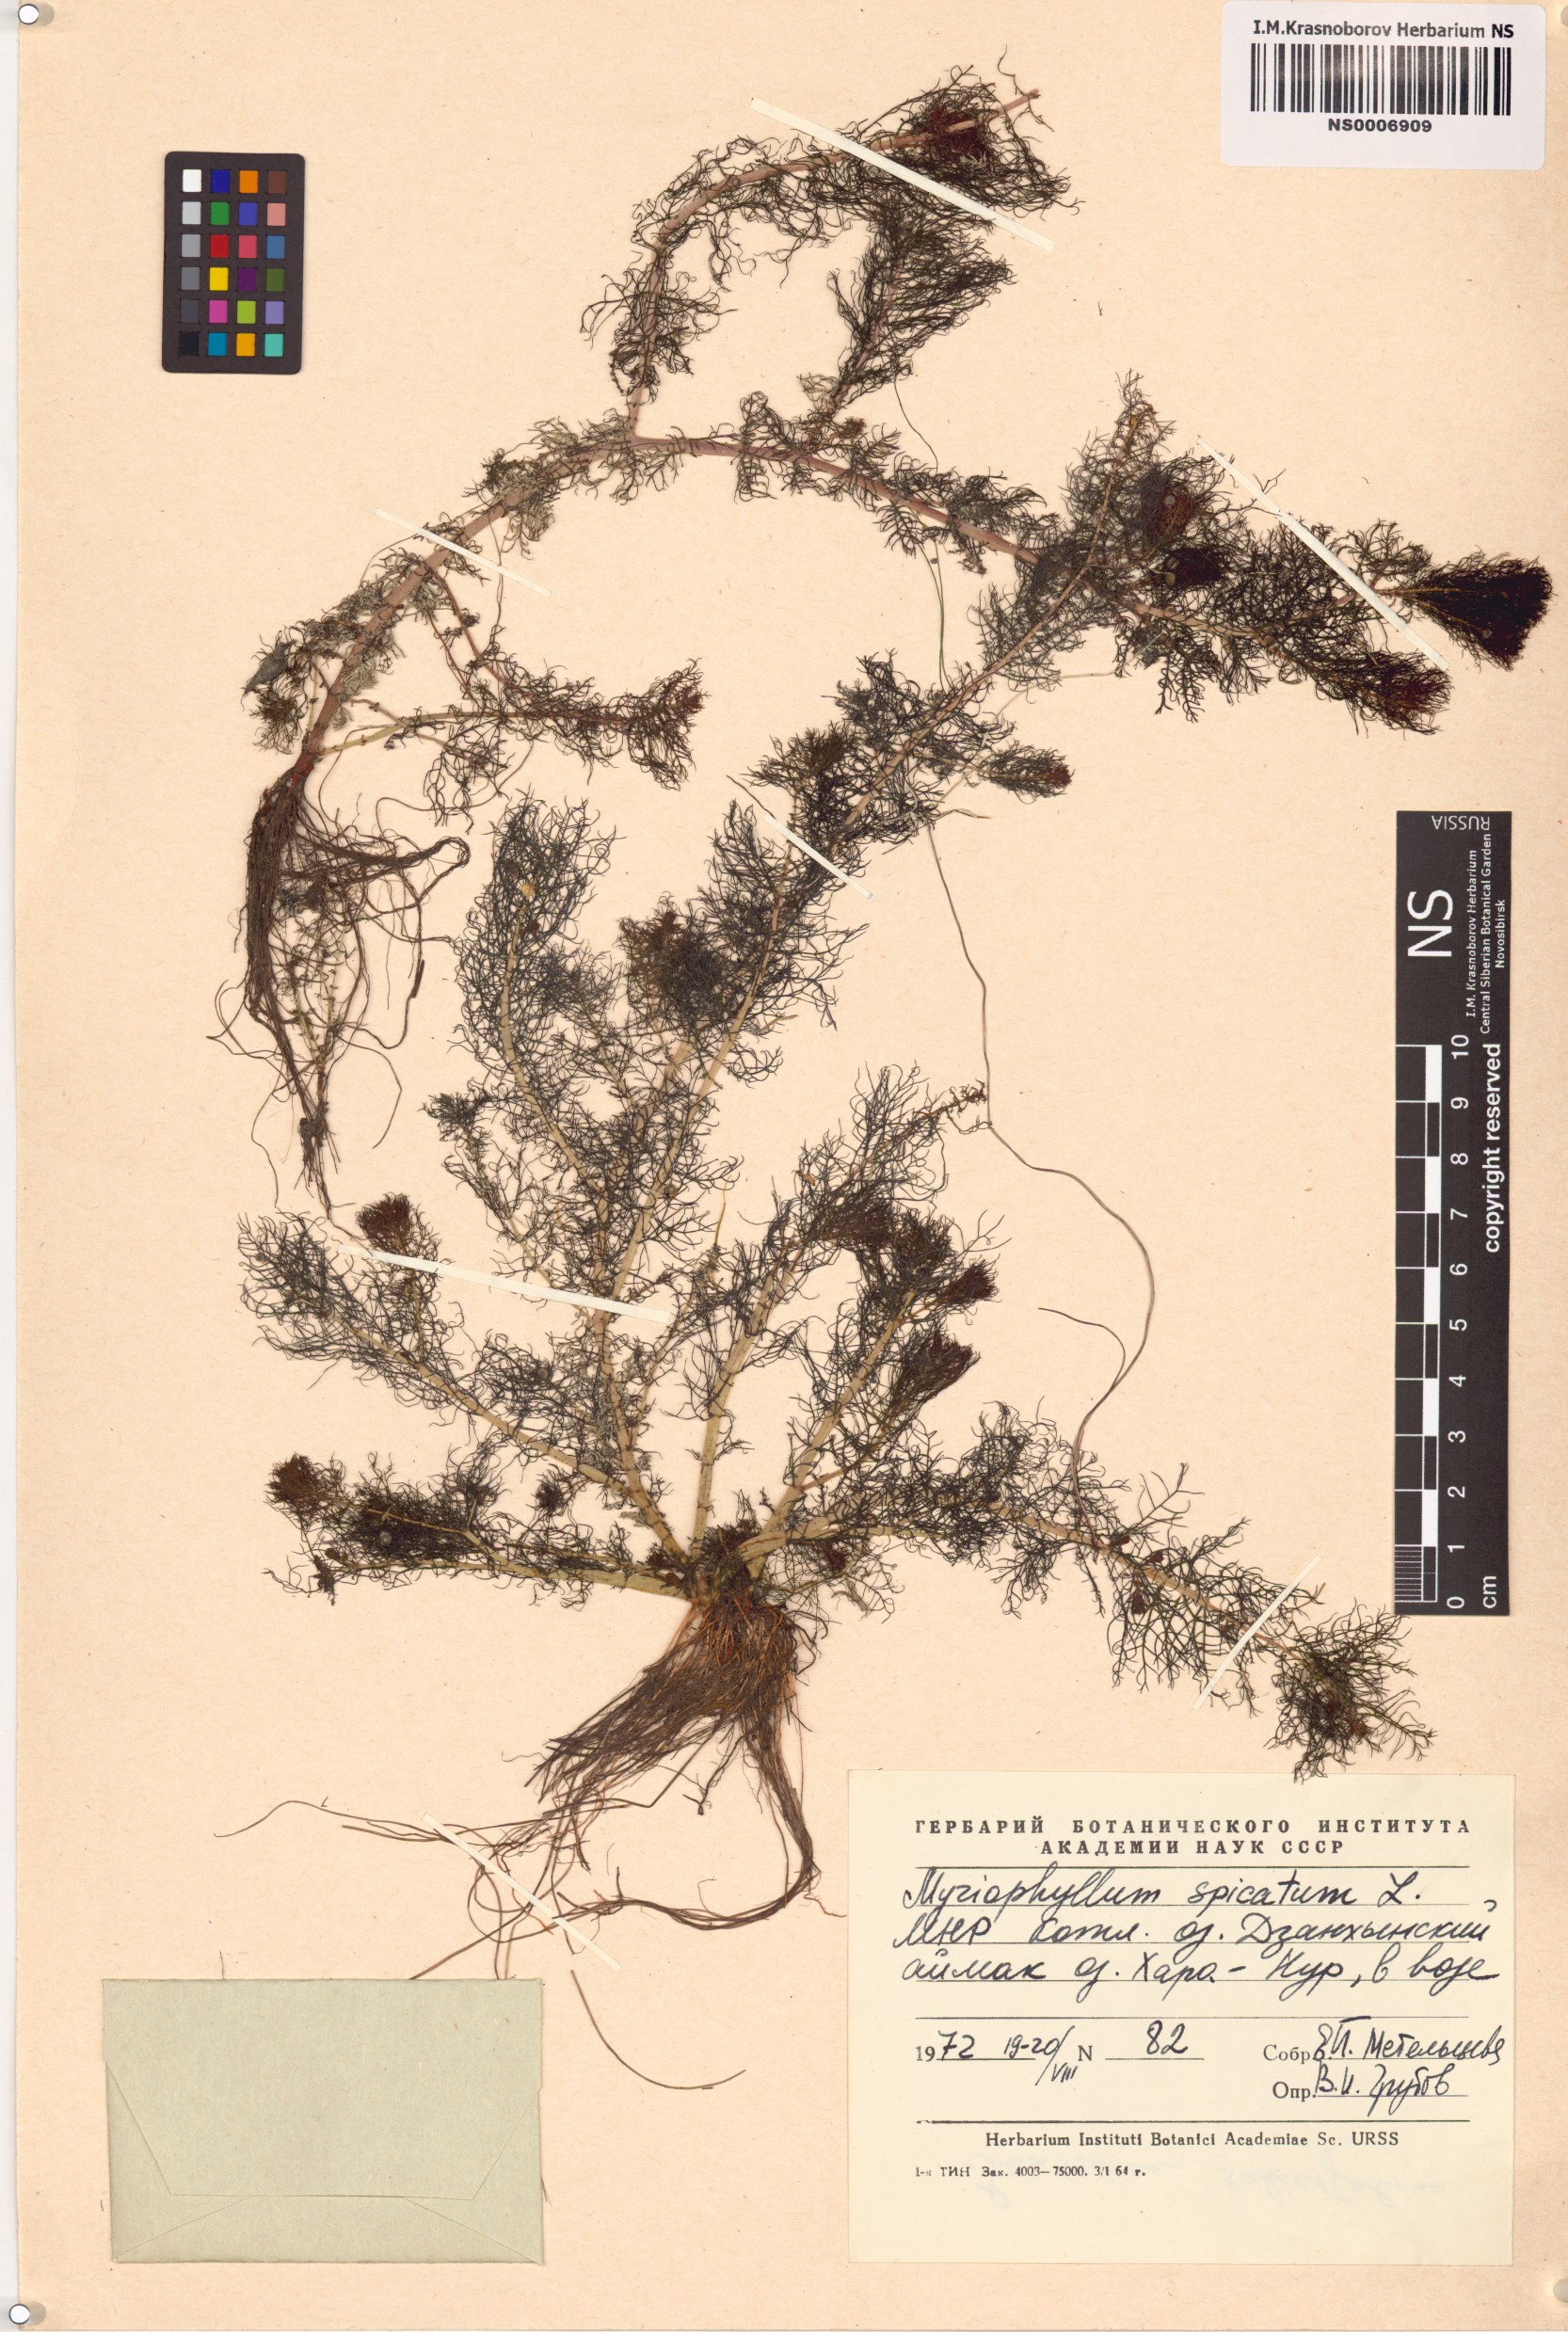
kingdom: Plantae
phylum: Tracheophyta
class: Magnoliopsida
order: Saxifragales
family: Haloragaceae
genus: Myriophyllum
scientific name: Myriophyllum spicatum
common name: Spiked water-milfoil
